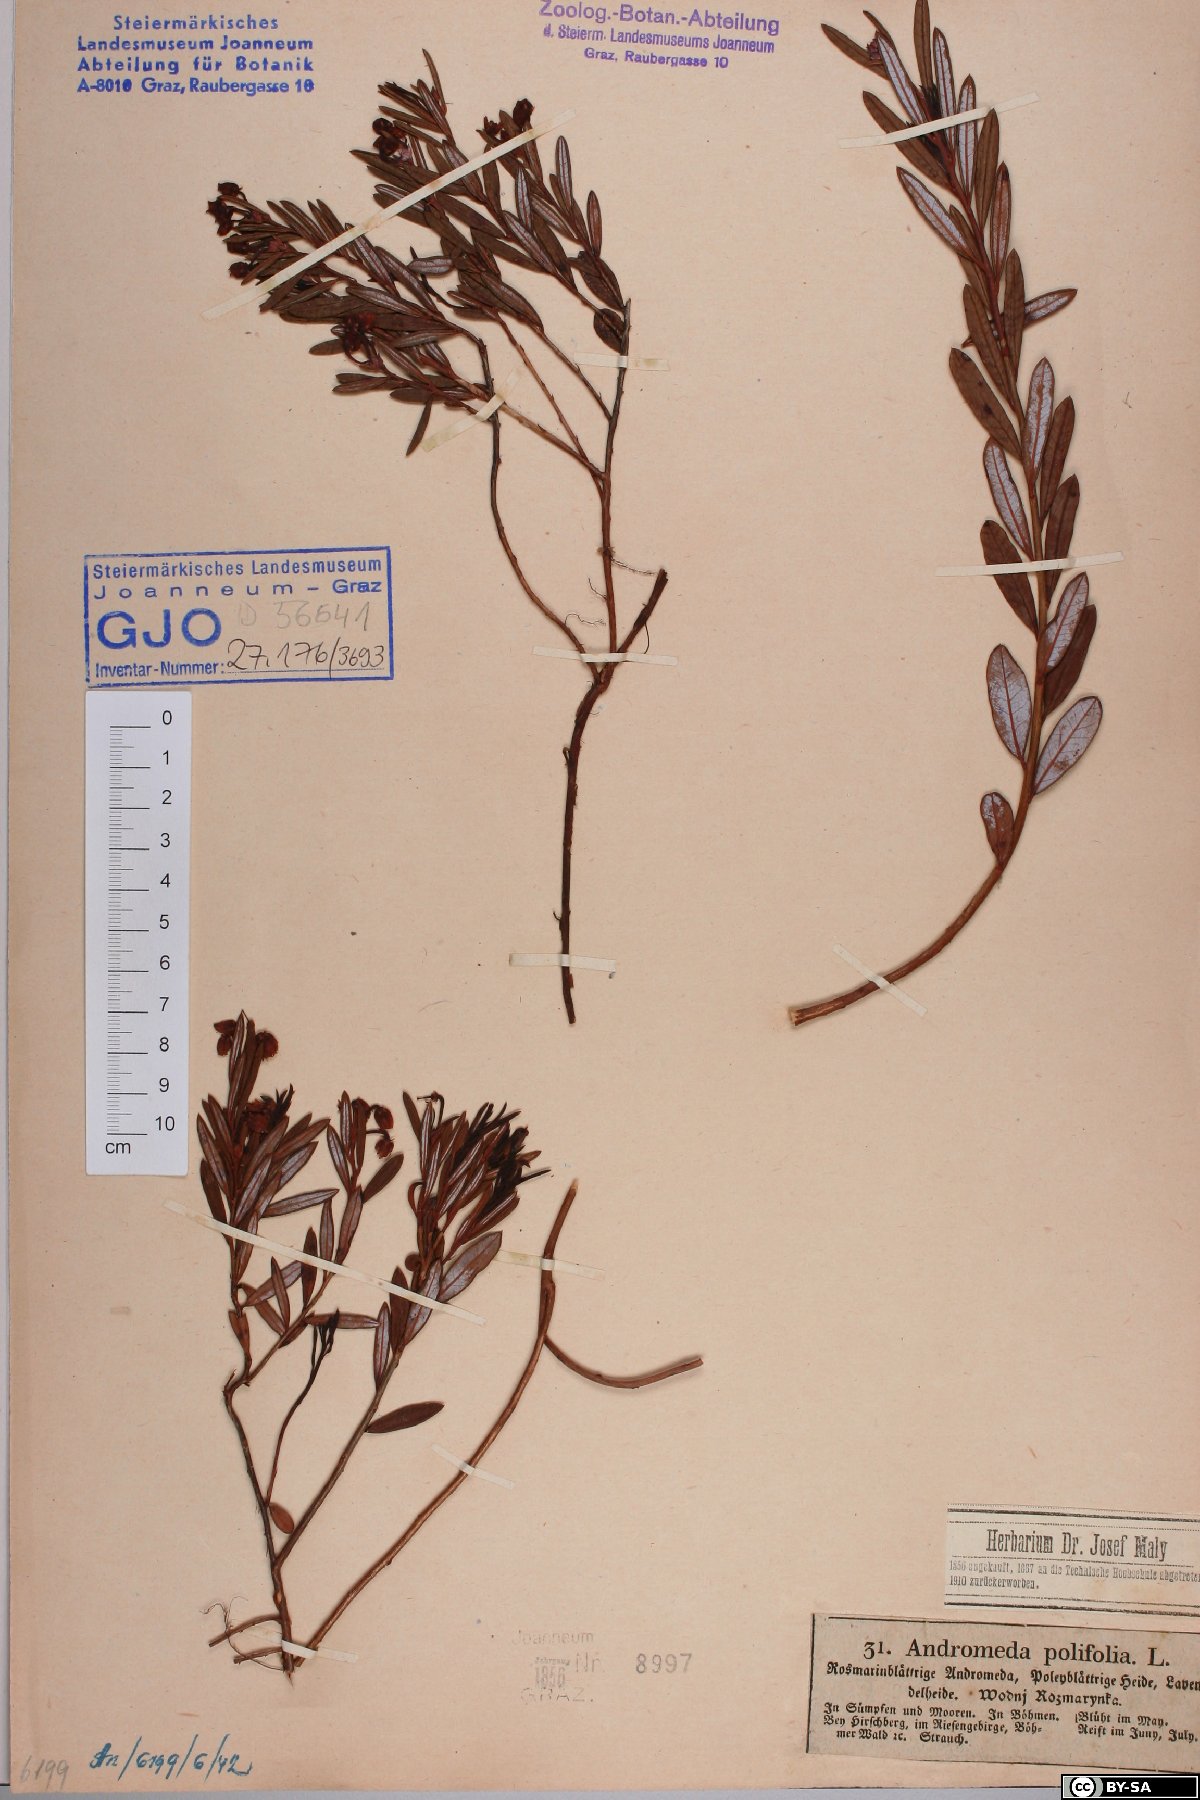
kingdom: Plantae
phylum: Tracheophyta
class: Magnoliopsida
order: Ericales
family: Ericaceae
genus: Andromeda
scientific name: Andromeda polifolia
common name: Bog-rosemary
